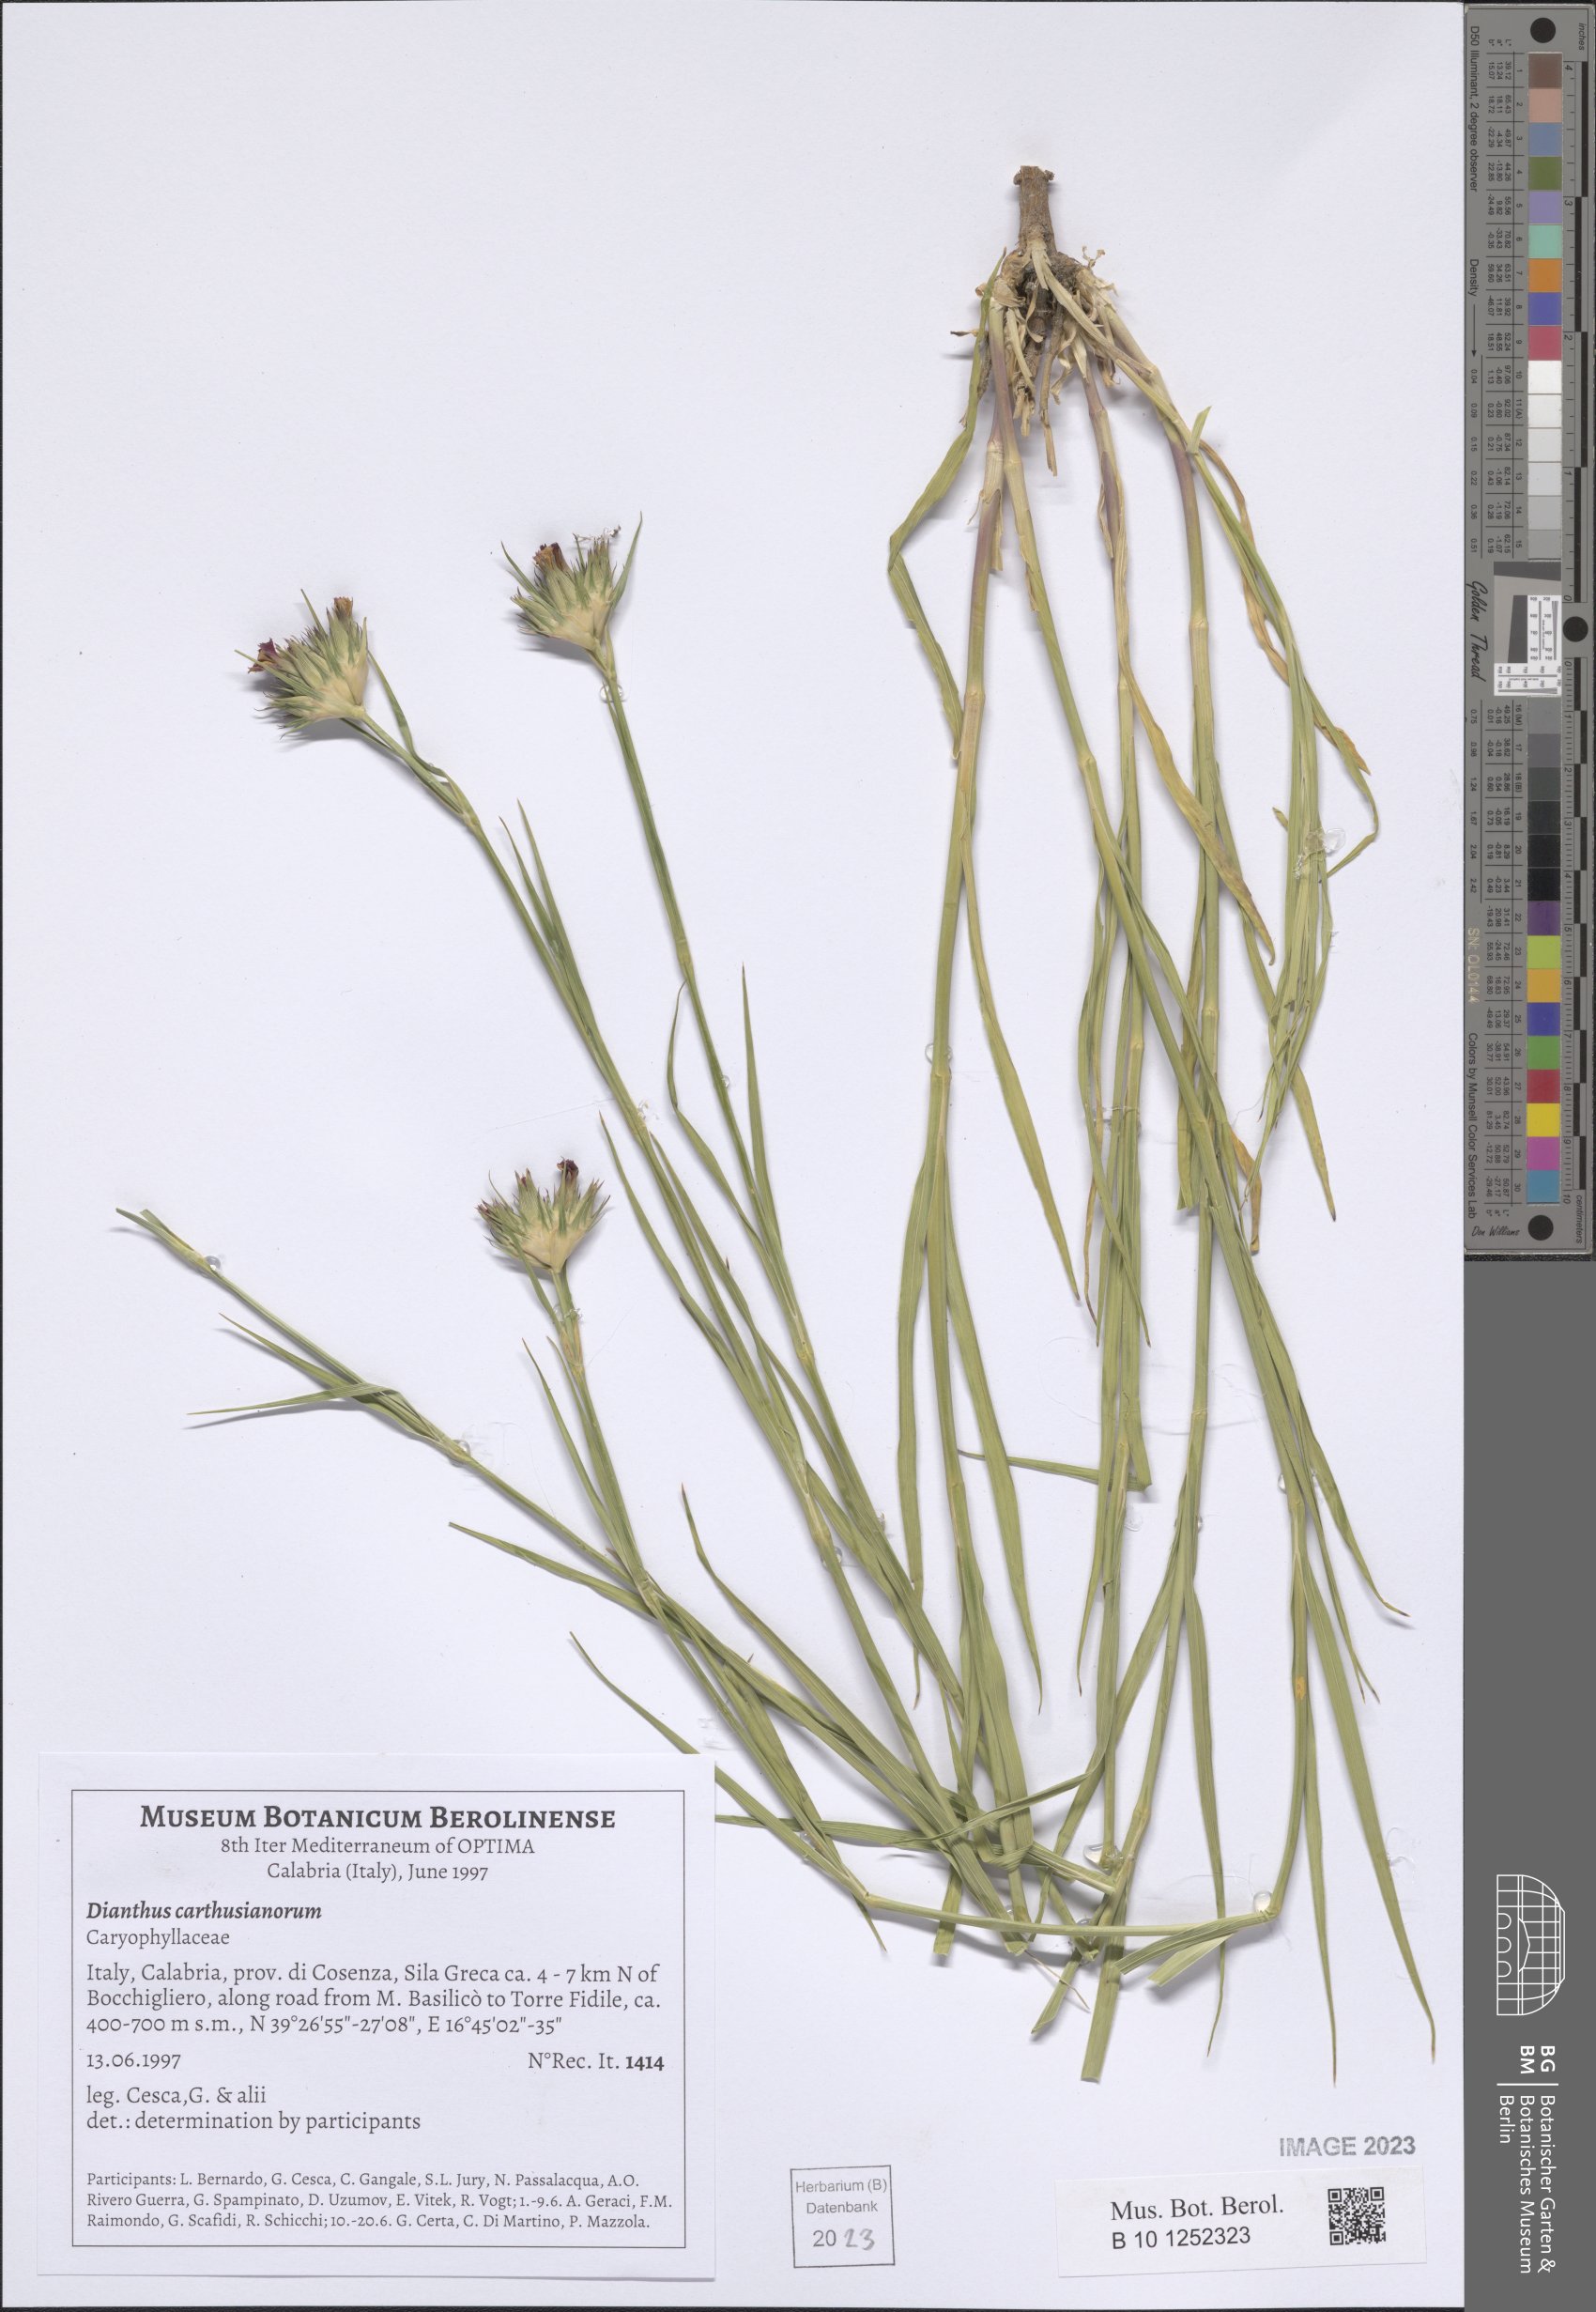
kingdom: Plantae
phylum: Tracheophyta
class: Magnoliopsida
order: Caryophyllales
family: Caryophyllaceae
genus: Dianthus
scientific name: Dianthus carthusianorum
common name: Carthusian pink
